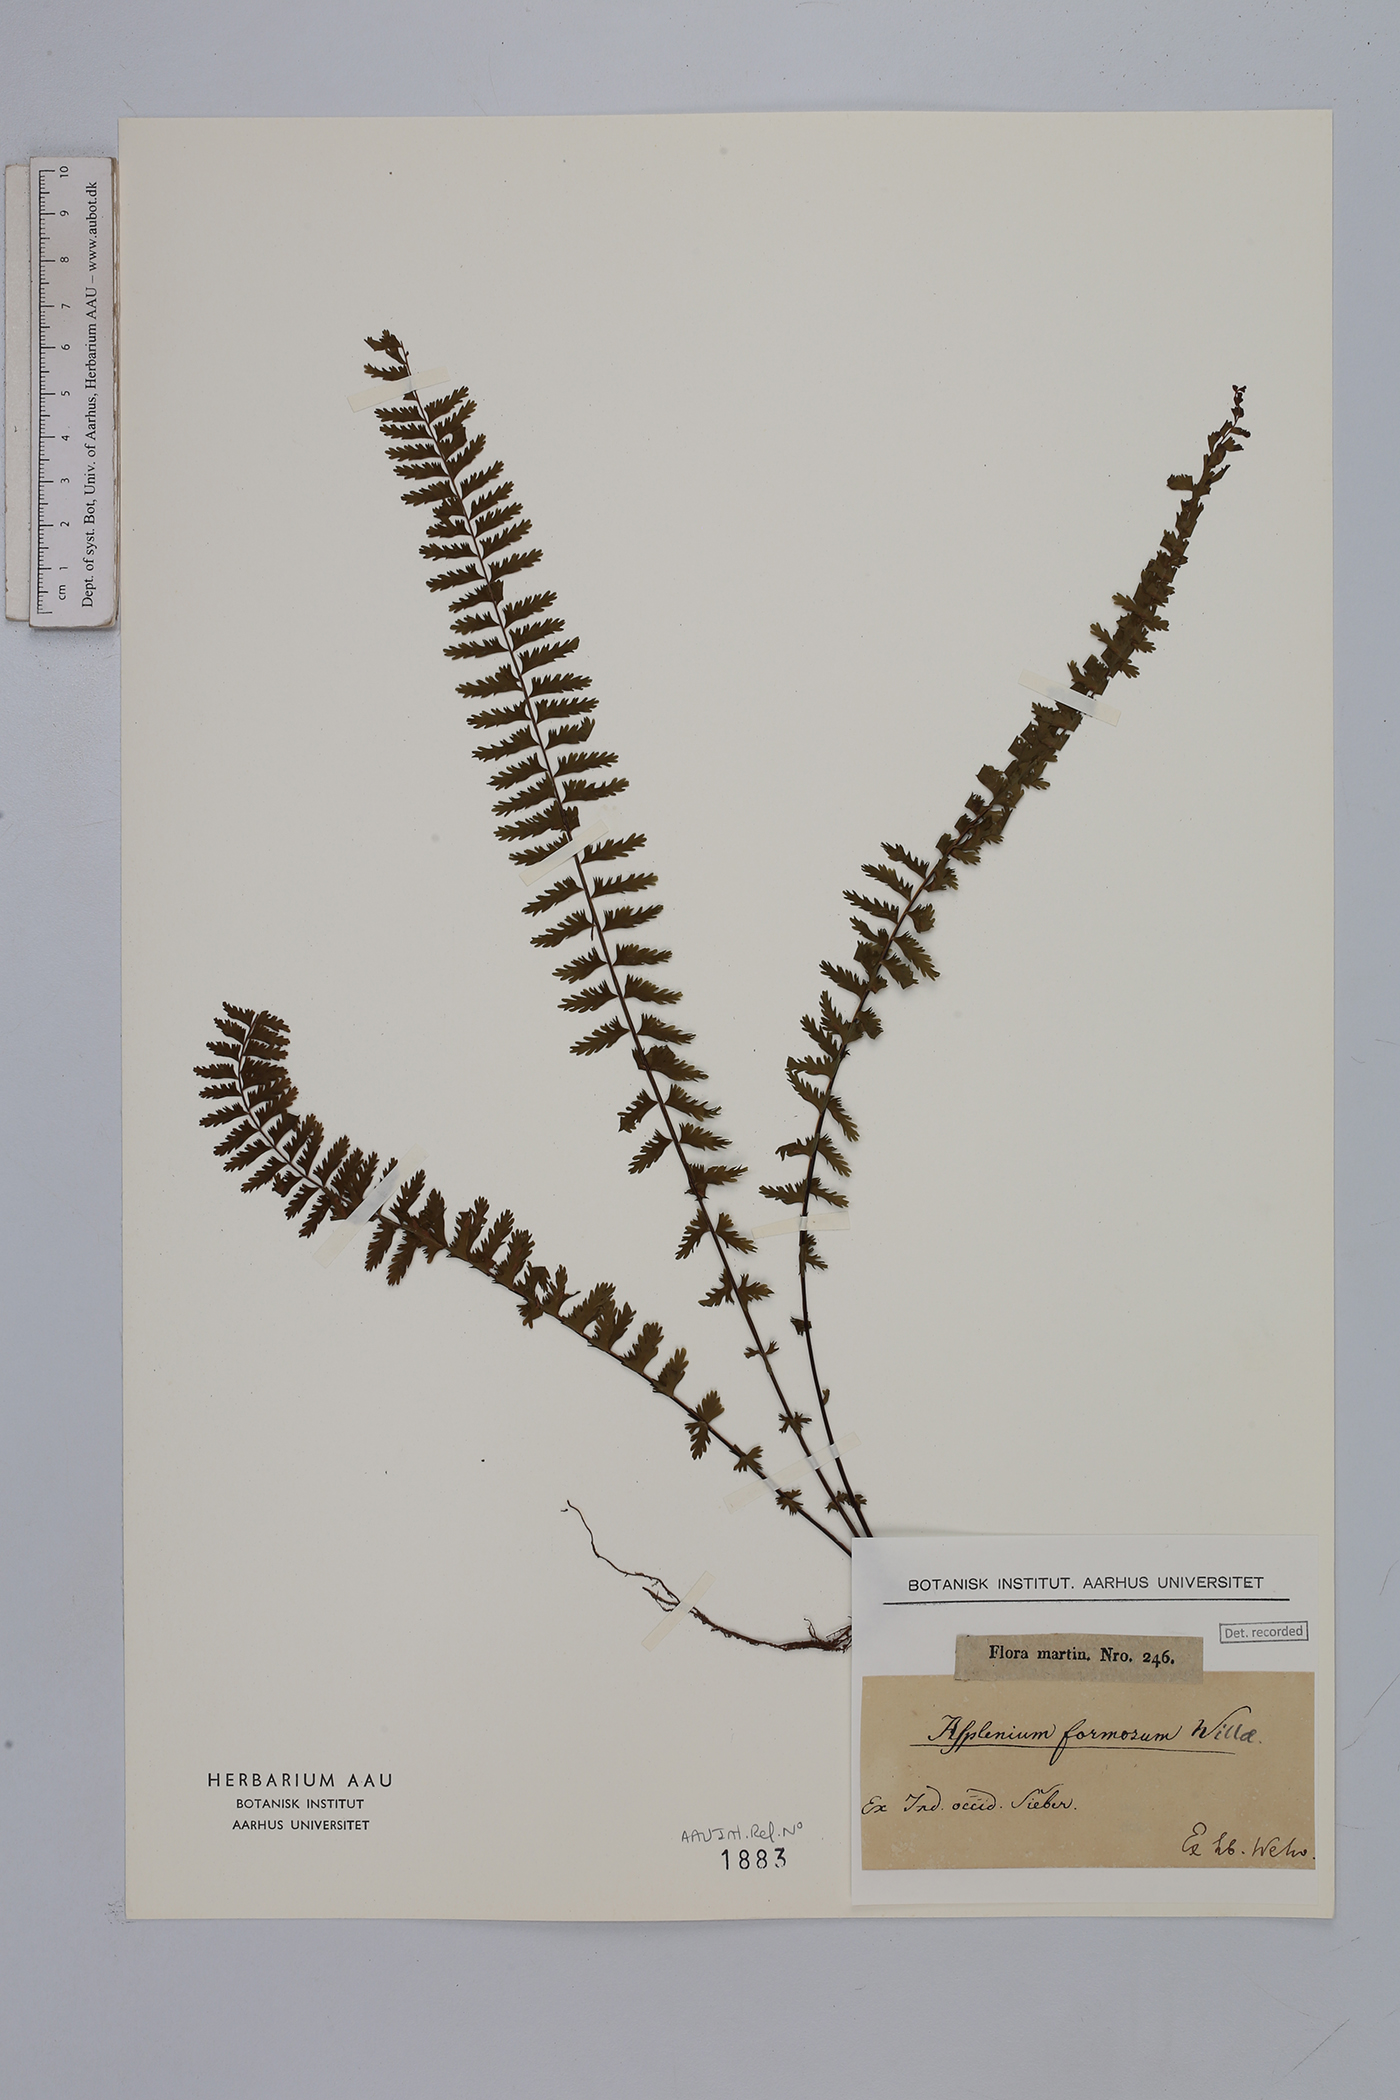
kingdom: Plantae
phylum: Tracheophyta
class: Polypodiopsida
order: Polypodiales
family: Aspleniaceae
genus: Asplenium
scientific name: Asplenium formosum
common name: Showy spleenwort
